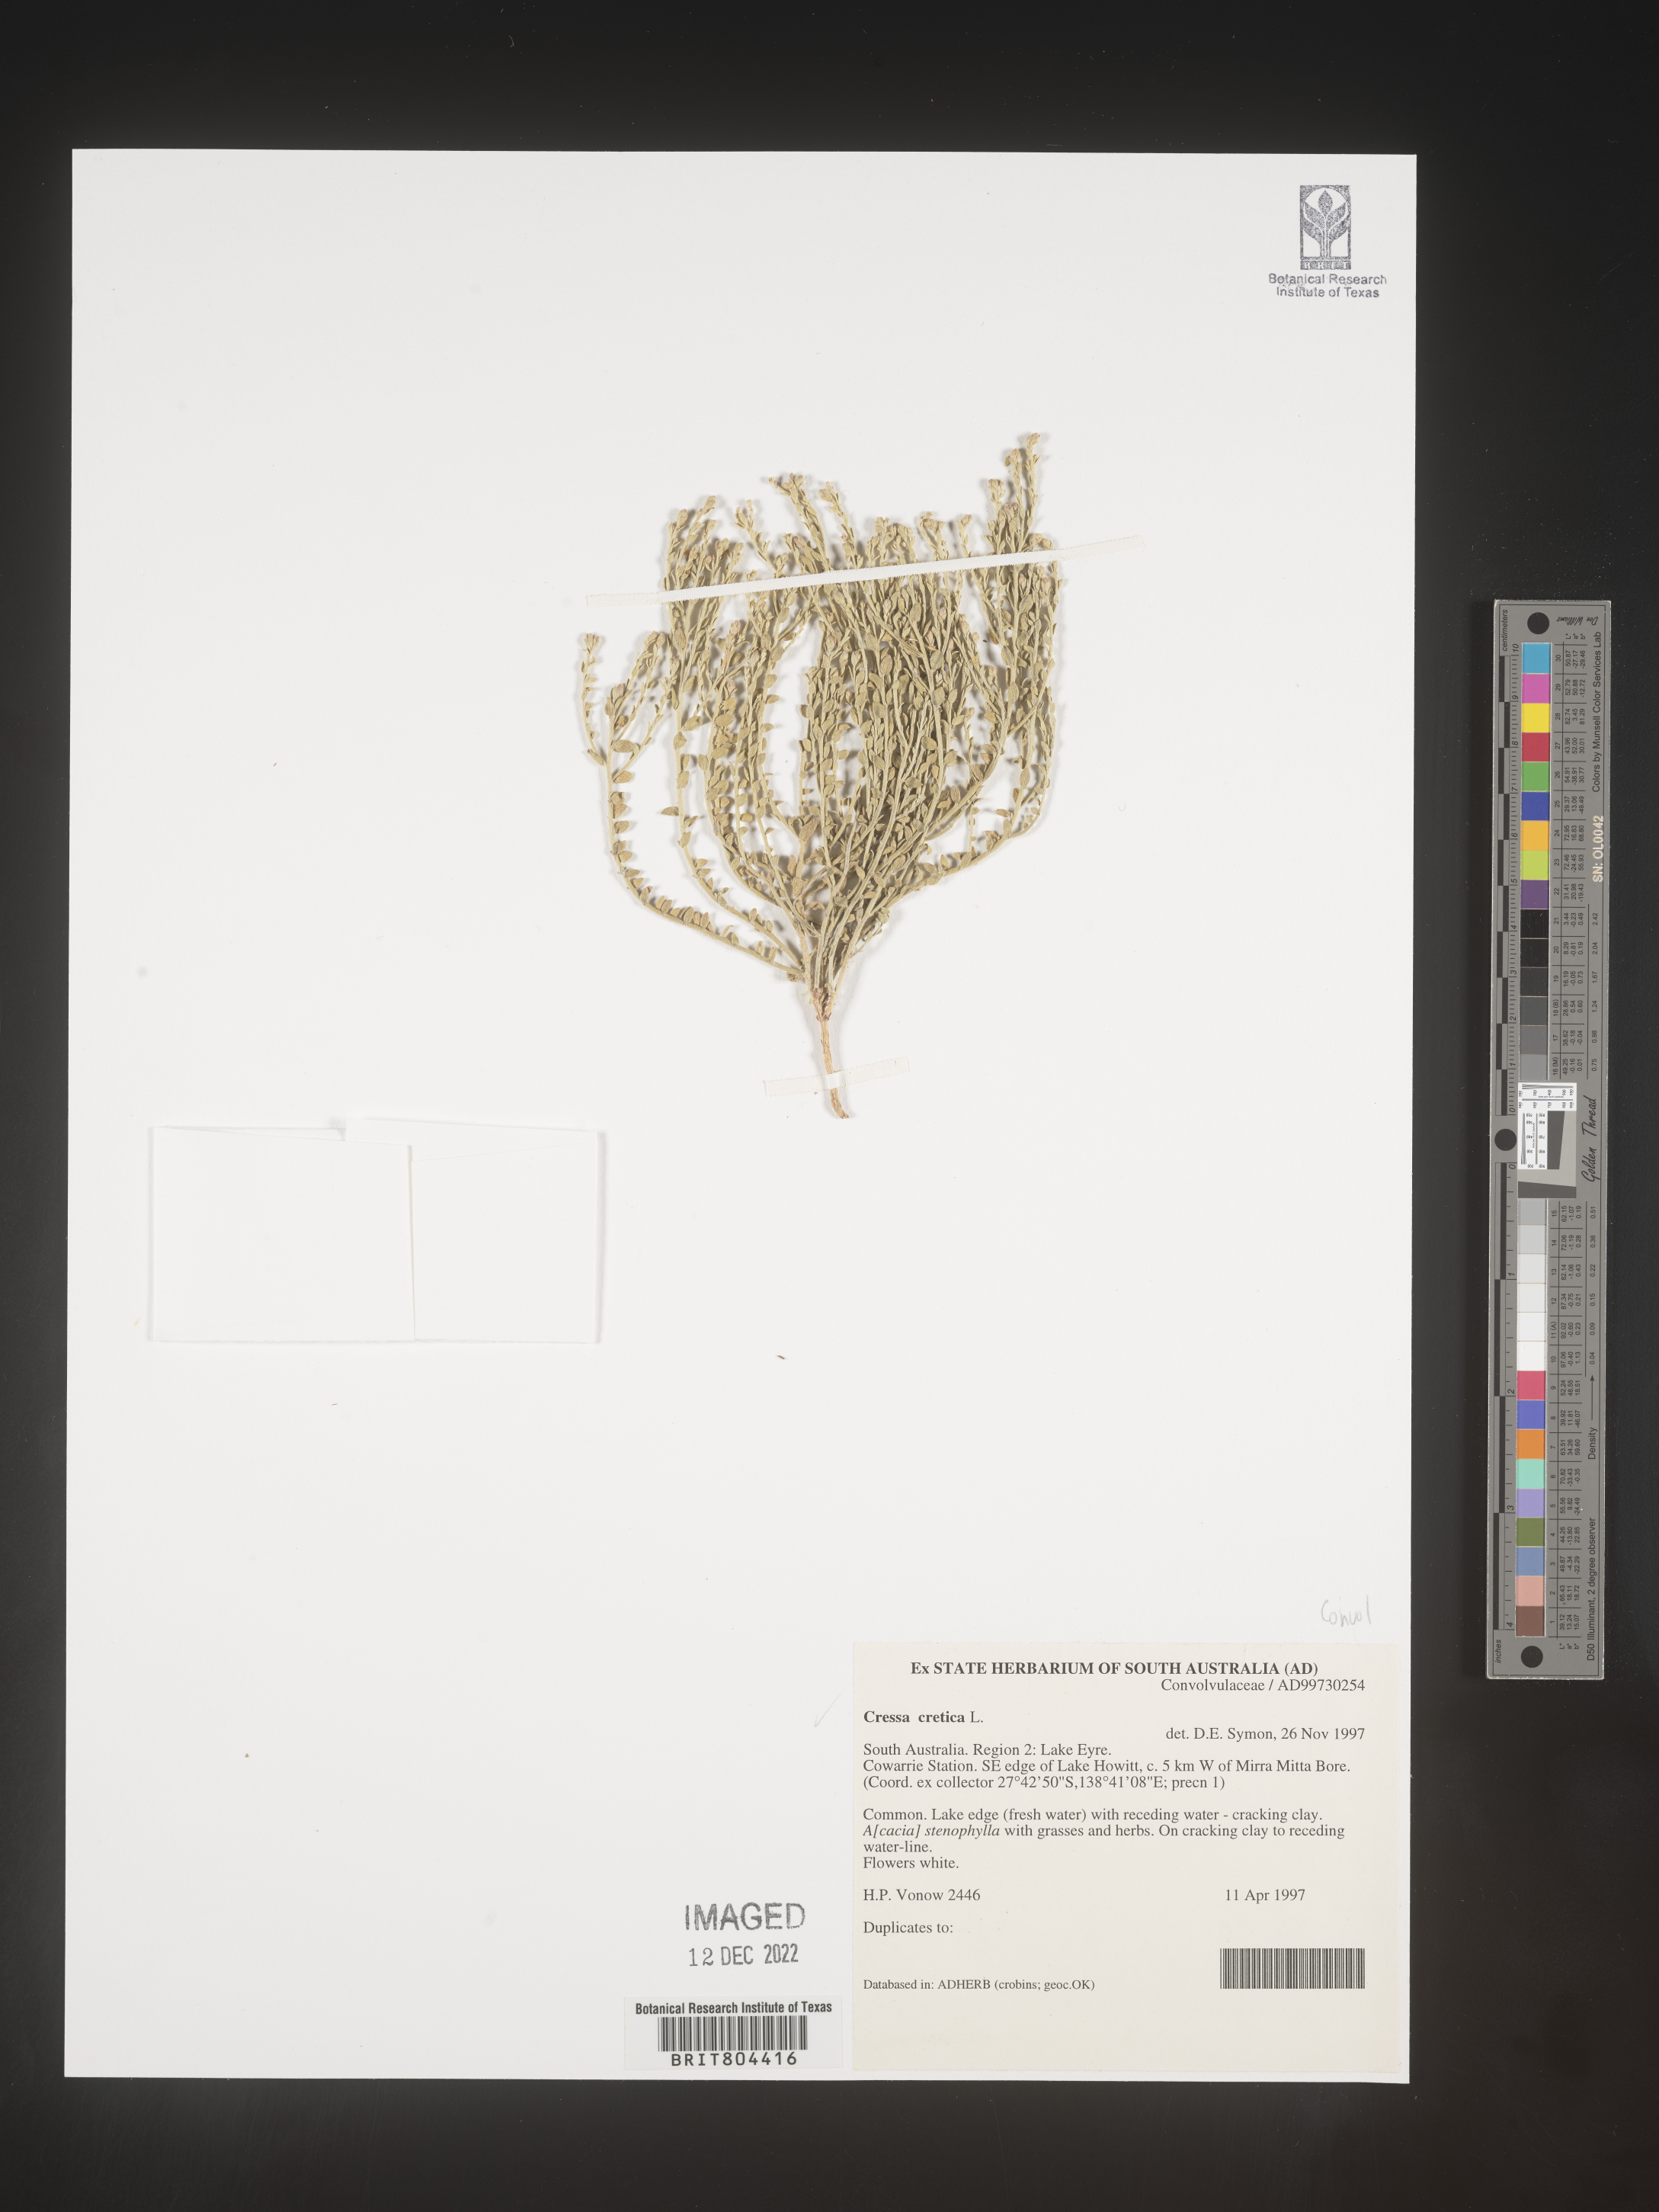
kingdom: Plantae
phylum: Tracheophyta
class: Magnoliopsida
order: Solanales
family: Convolvulaceae
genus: Cressa
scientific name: Cressa
